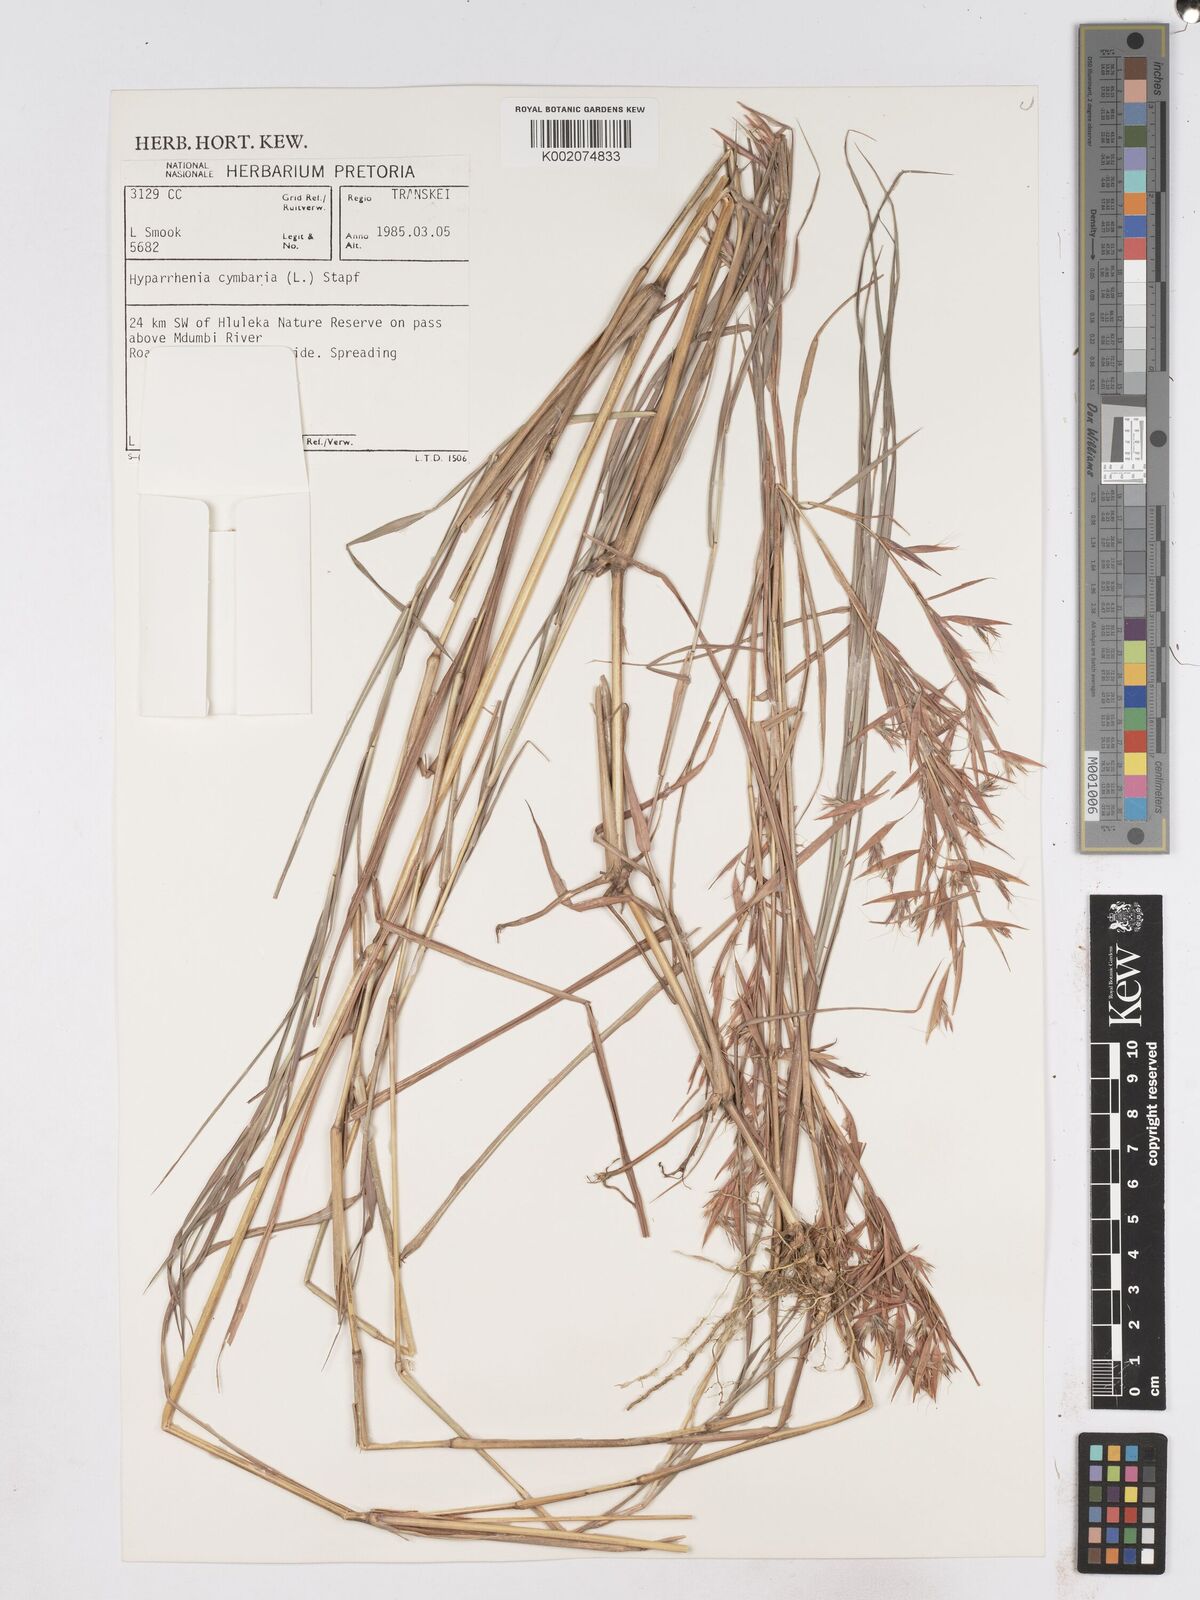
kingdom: Plantae
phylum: Tracheophyta
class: Liliopsida
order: Poales
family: Poaceae
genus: Hyparrhenia
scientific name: Hyparrhenia cymbaria
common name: Boat thatching grass
